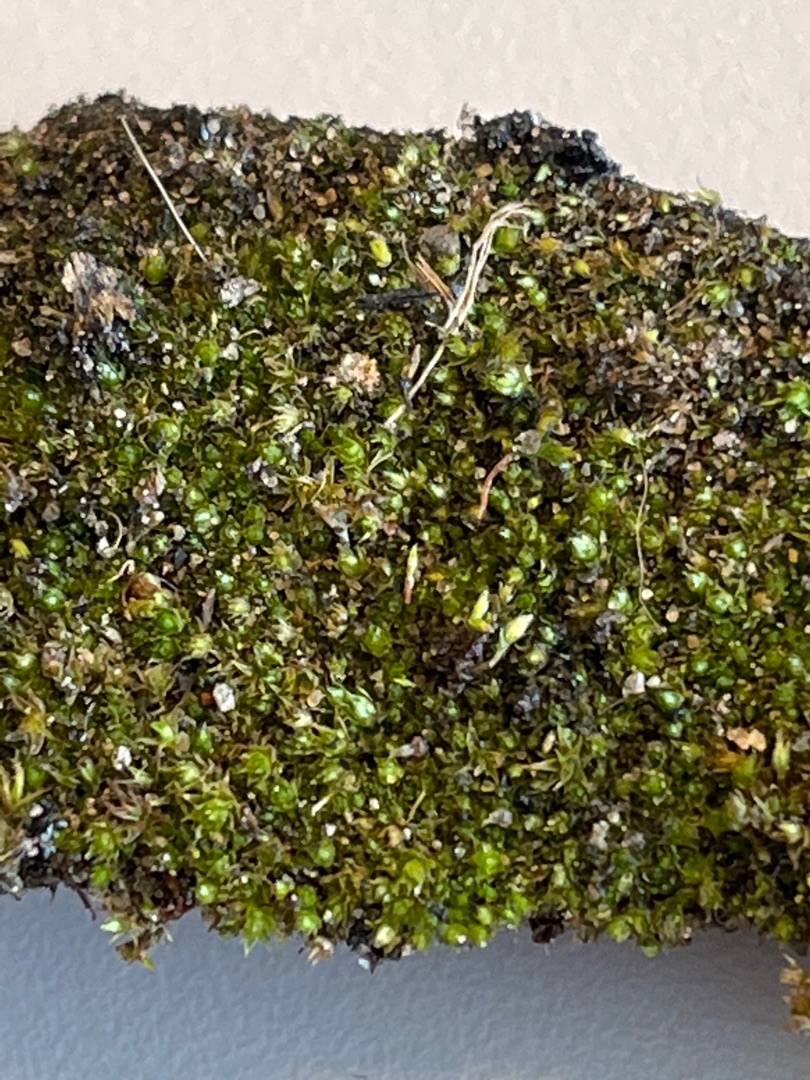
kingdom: Plantae
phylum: Bryophyta
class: Bryopsida
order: Bryales
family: Bryaceae
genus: Bryum
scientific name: Bryum
